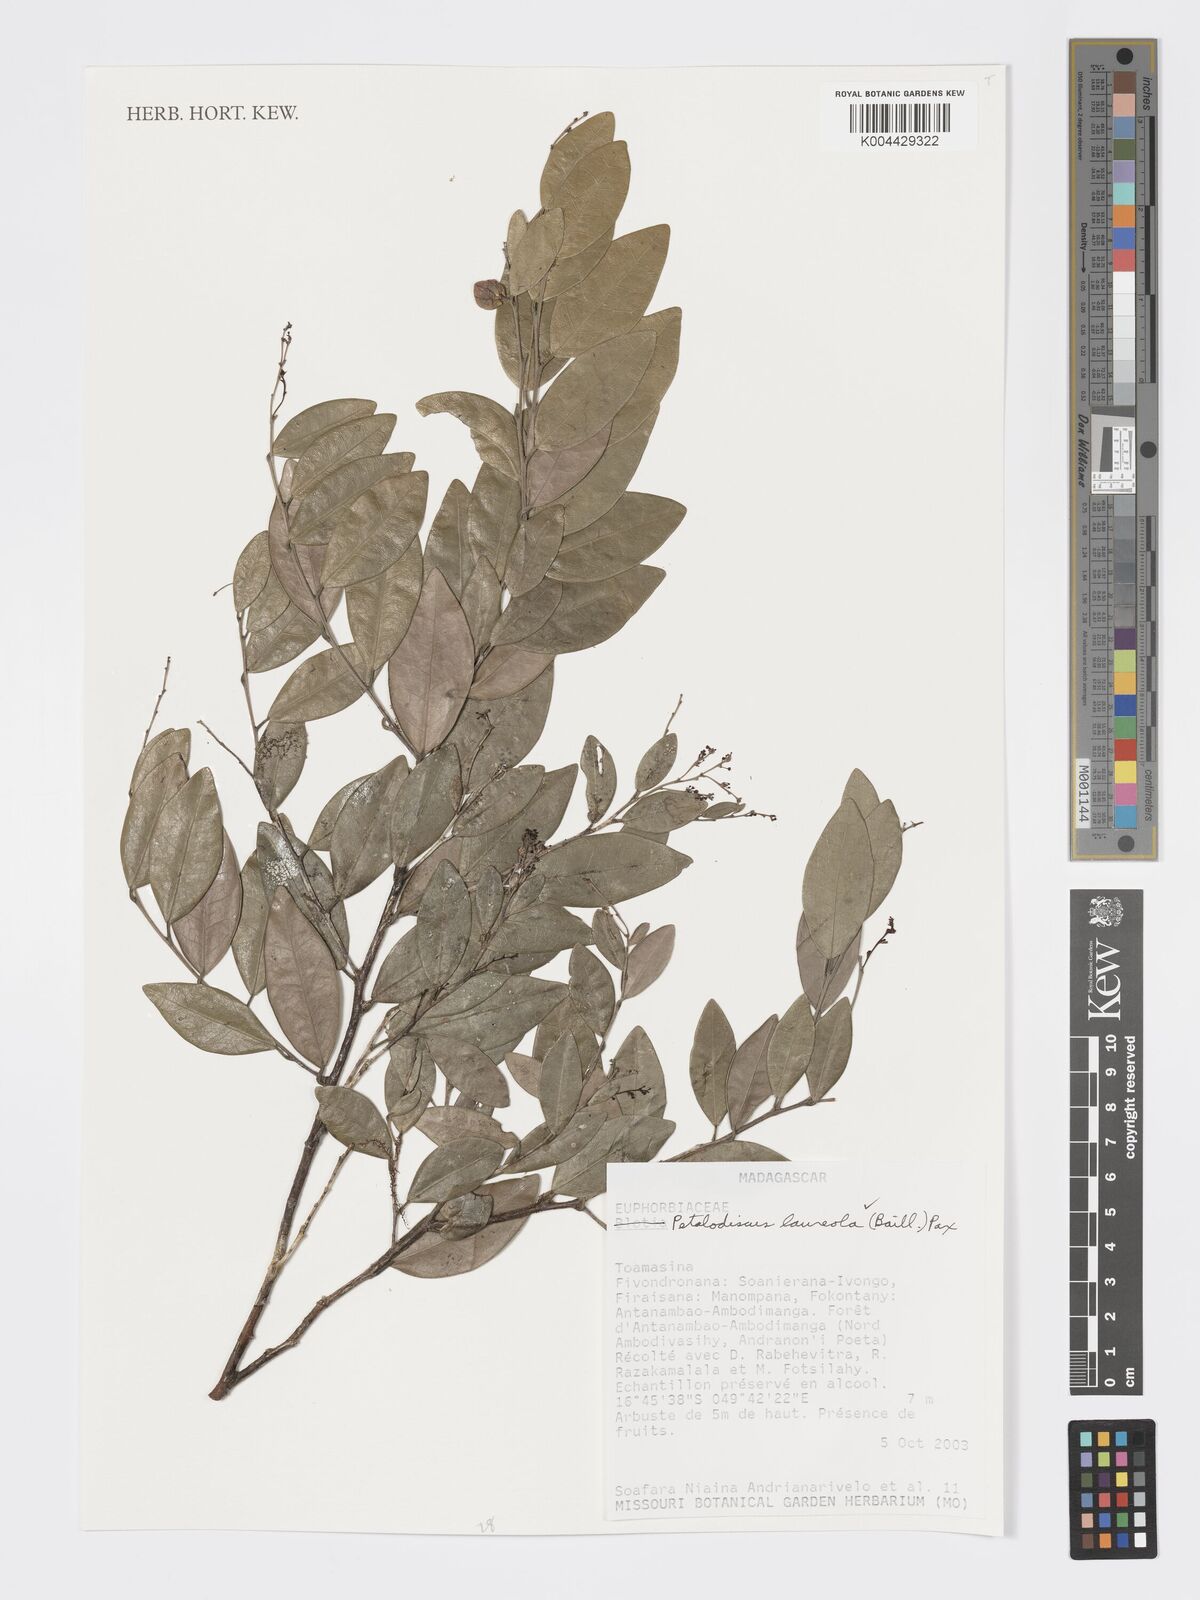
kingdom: Plantae
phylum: Tracheophyta
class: Magnoliopsida
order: Malpighiales
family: Phyllanthaceae
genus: Wielandia
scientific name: Wielandia laureola
